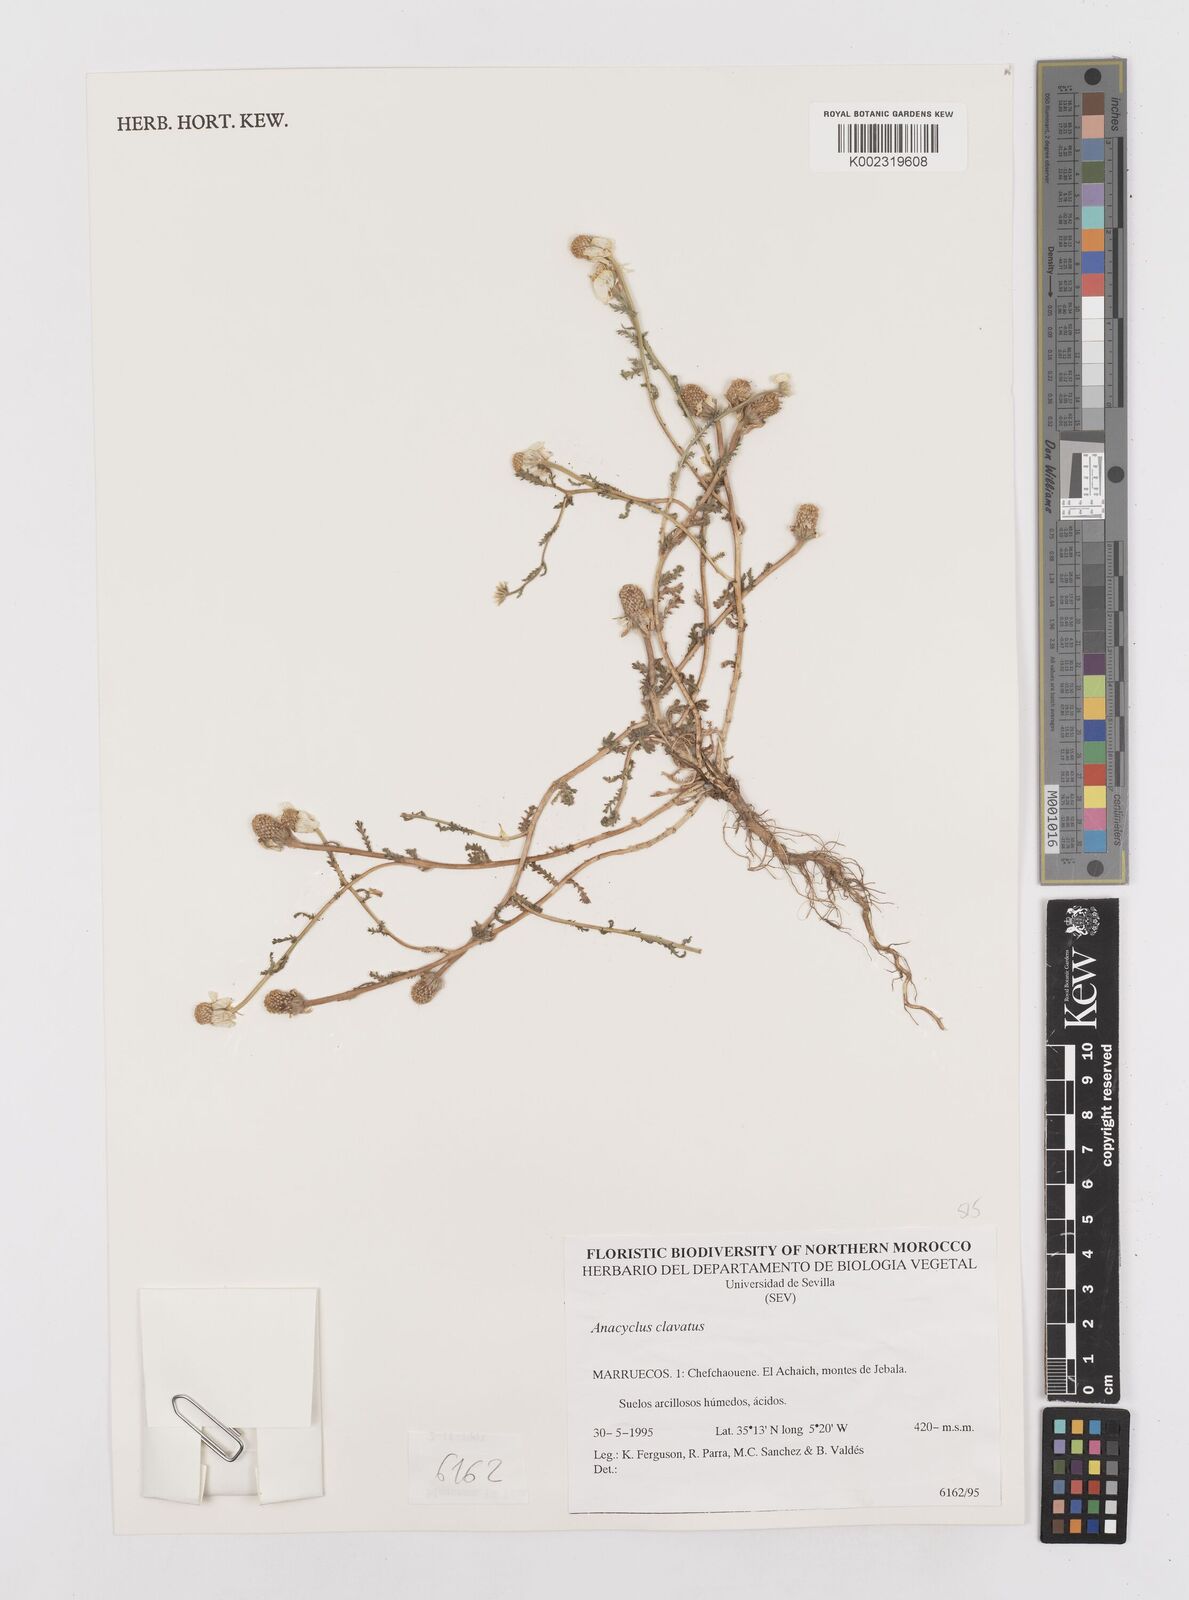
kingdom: Plantae
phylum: Tracheophyta
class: Magnoliopsida
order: Asterales
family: Asteraceae
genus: Anacyclus
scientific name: Anacyclus clavatus
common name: Whitebuttons
